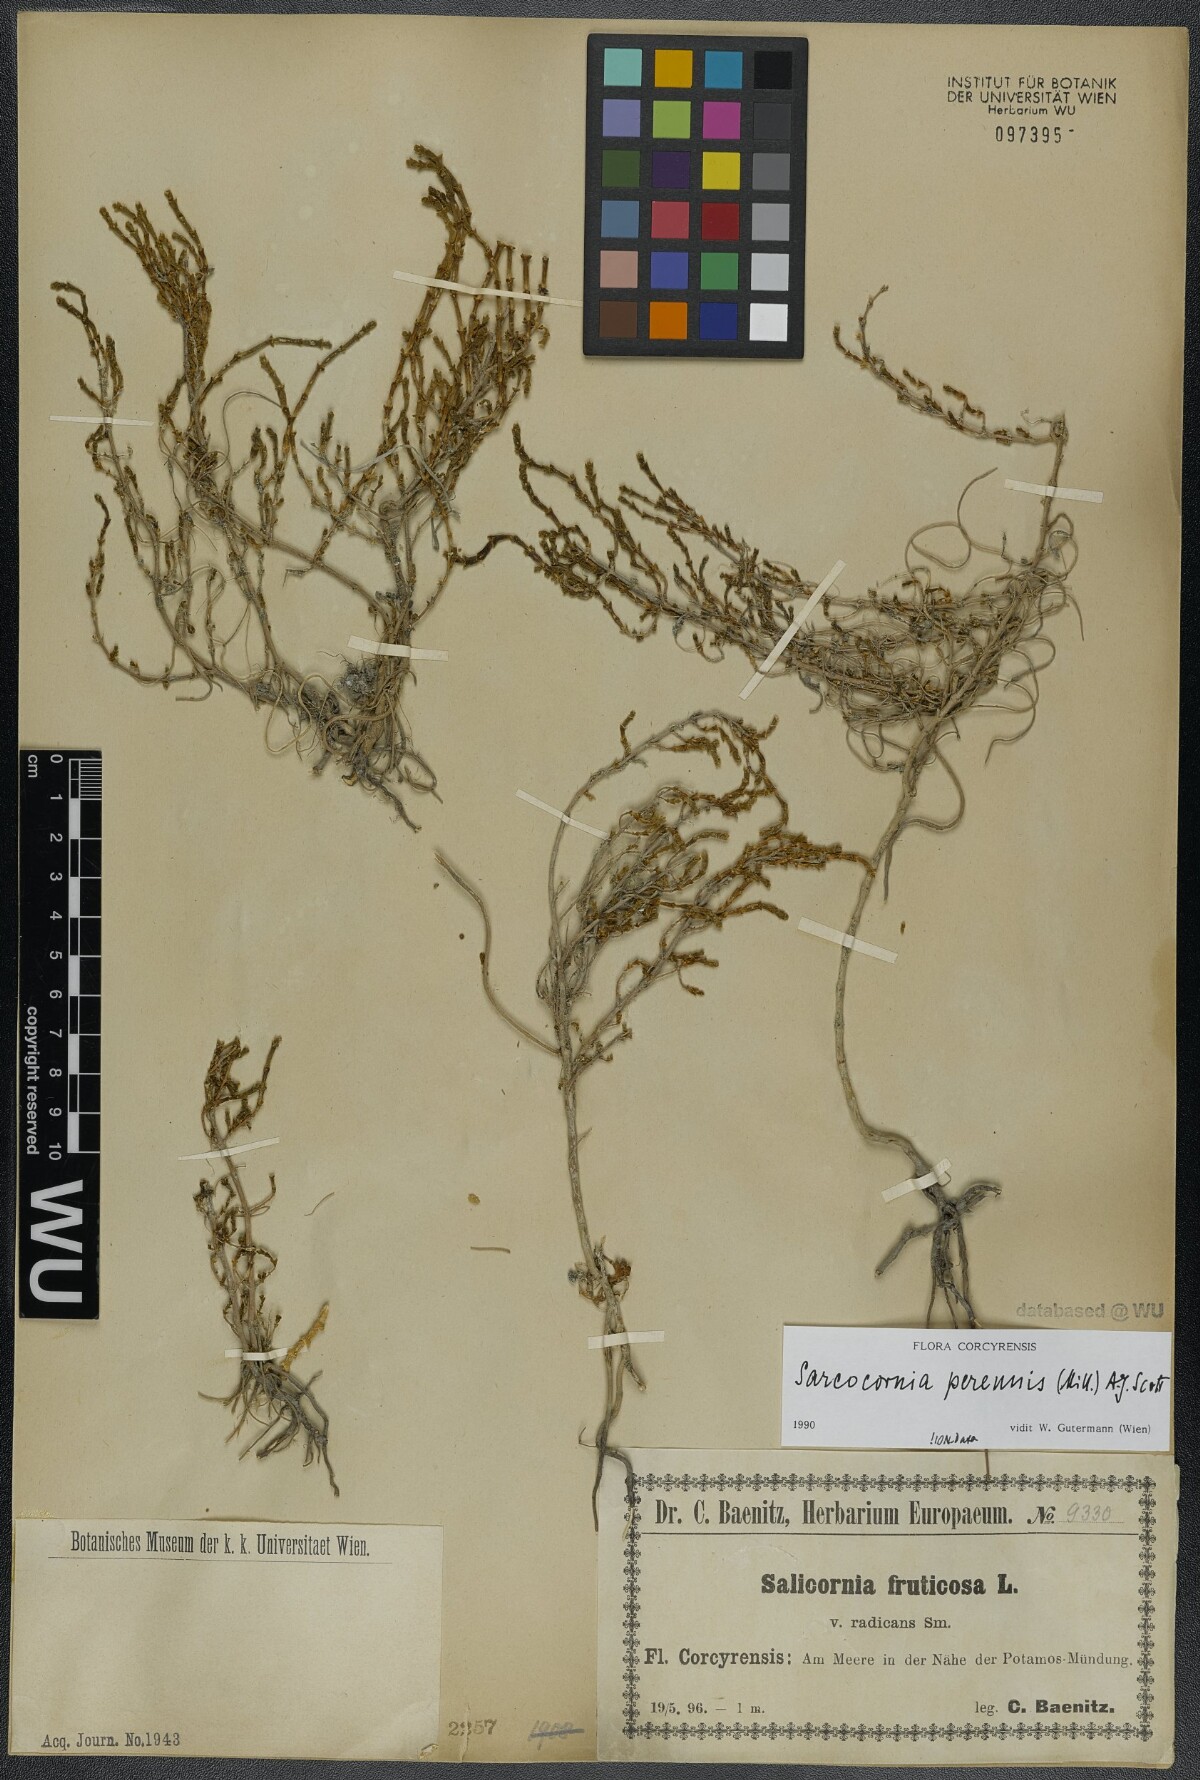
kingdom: Plantae
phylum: Tracheophyta
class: Magnoliopsida
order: Caryophyllales
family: Amaranthaceae
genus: Salicornia
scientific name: Salicornia perennis
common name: Chicken claws
